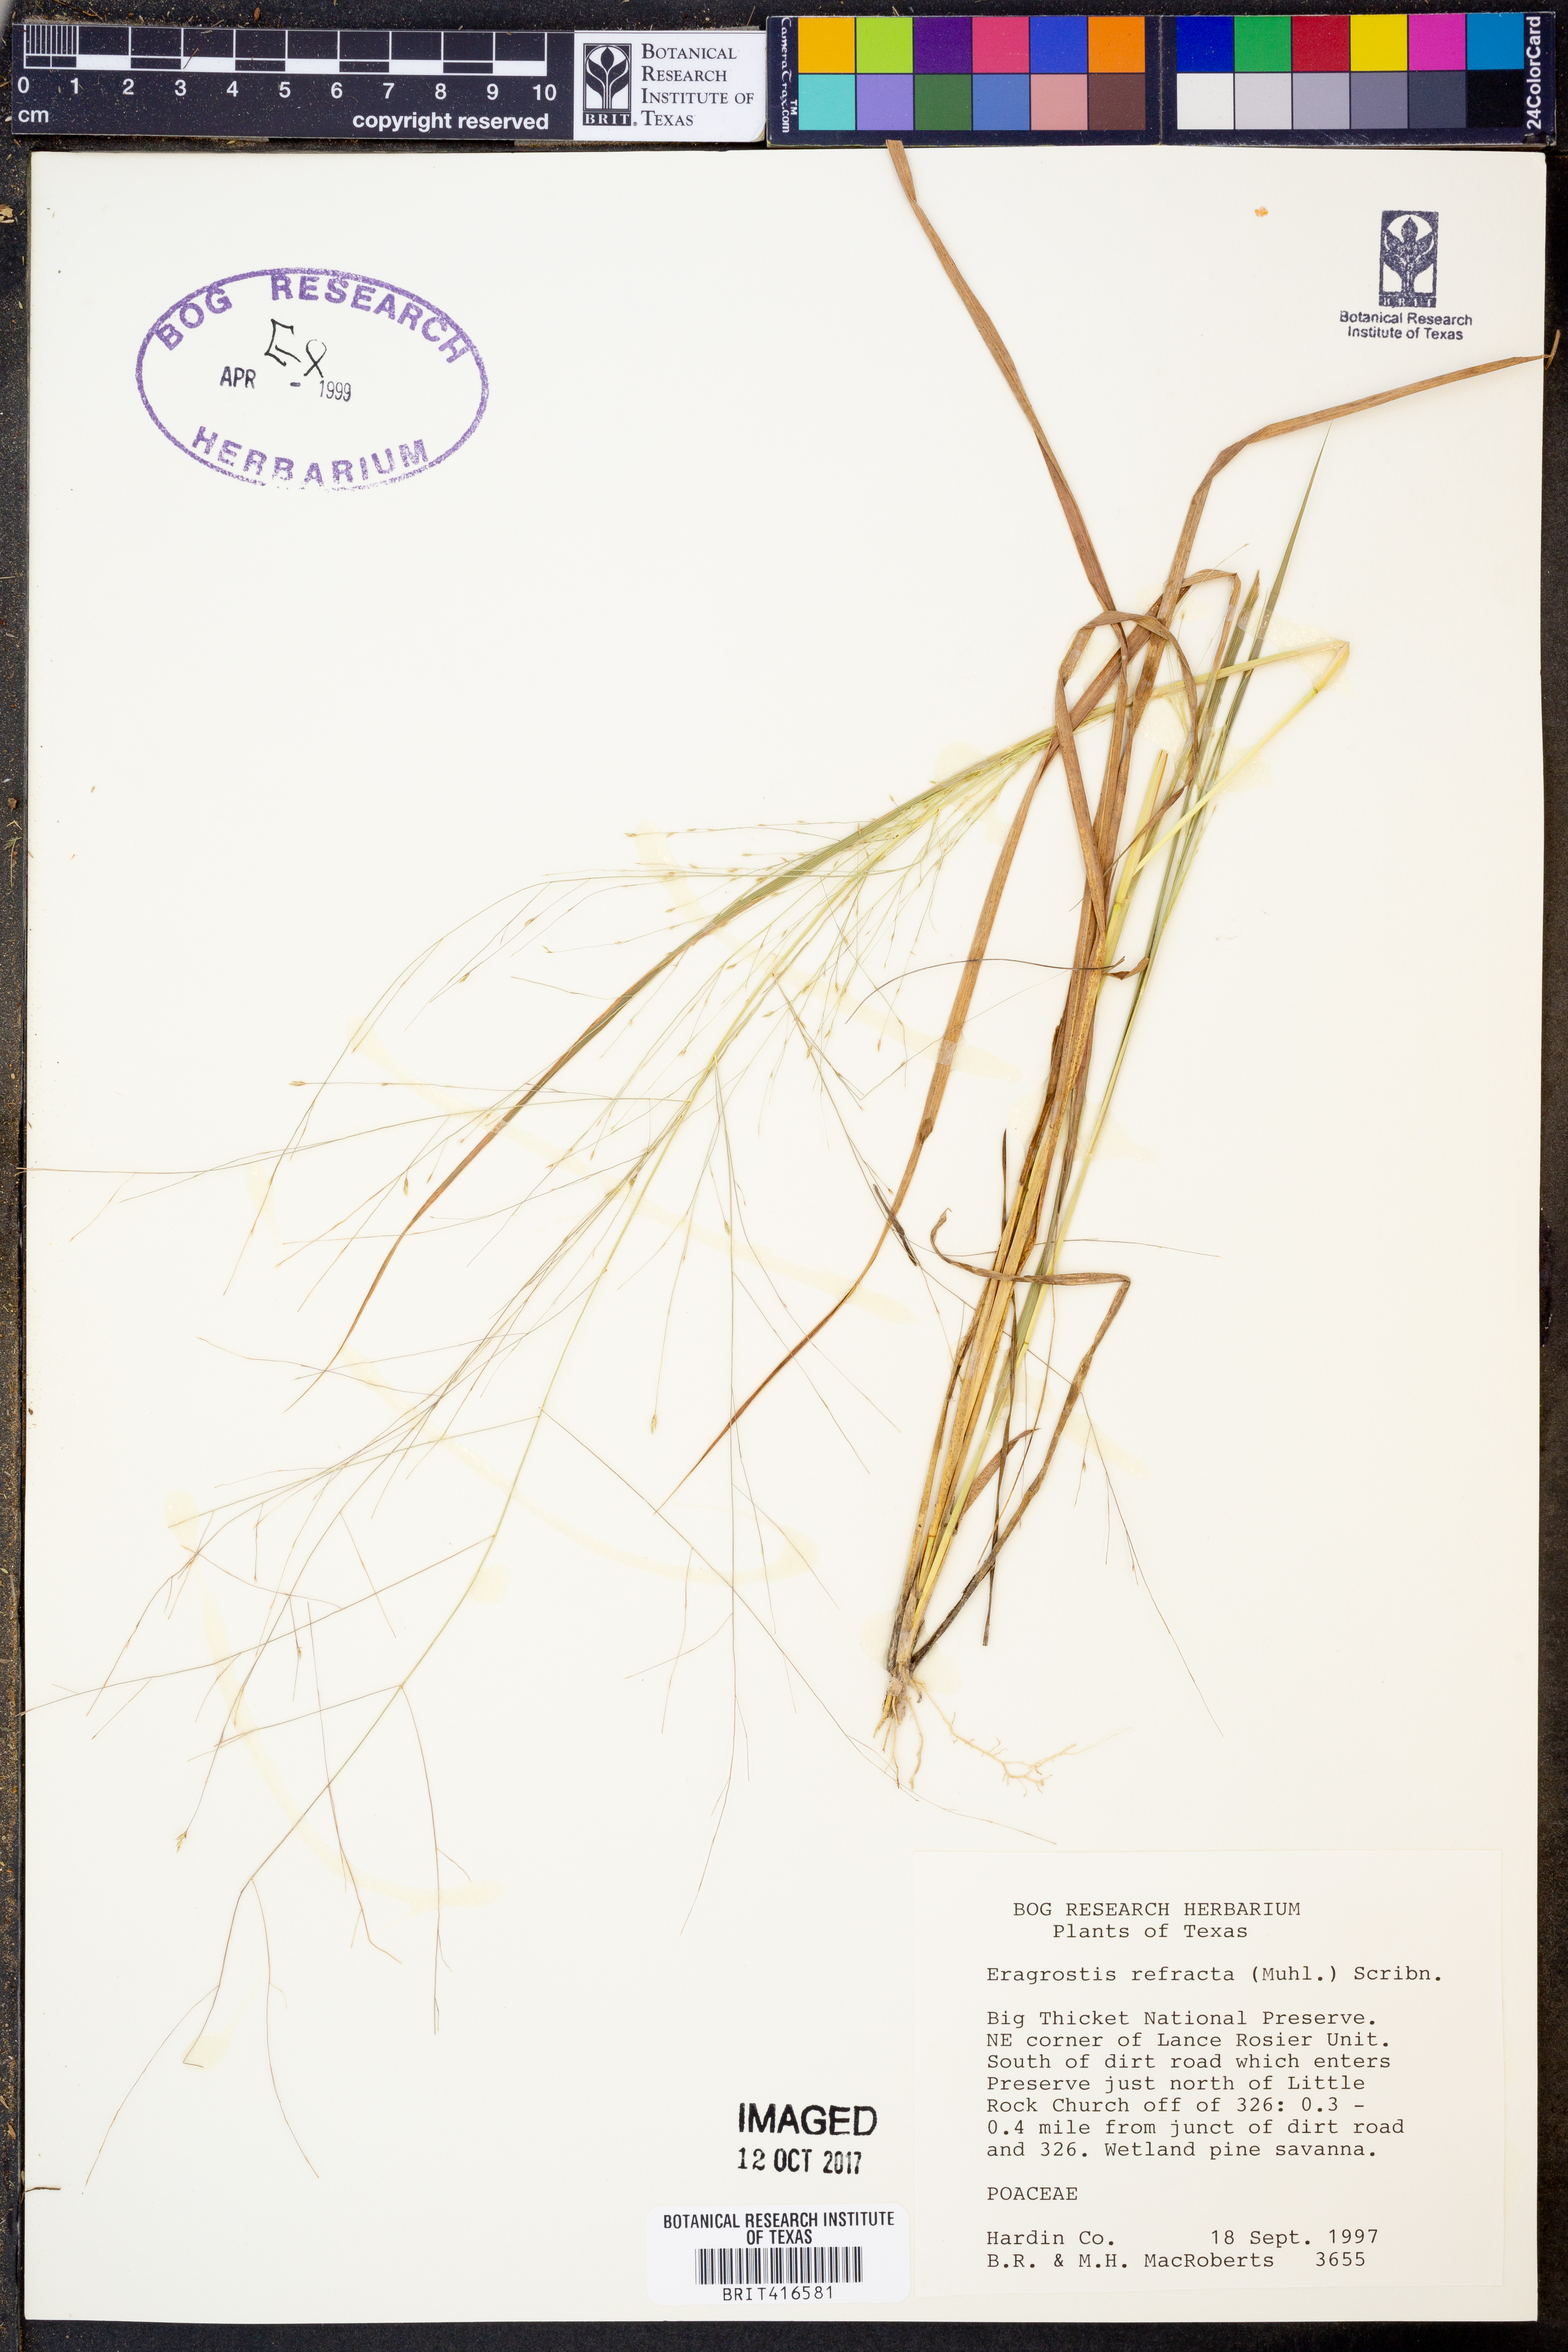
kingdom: Plantae
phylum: Tracheophyta
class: Liliopsida
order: Poales
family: Poaceae
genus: Eragrostis
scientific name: Eragrostis refracta
